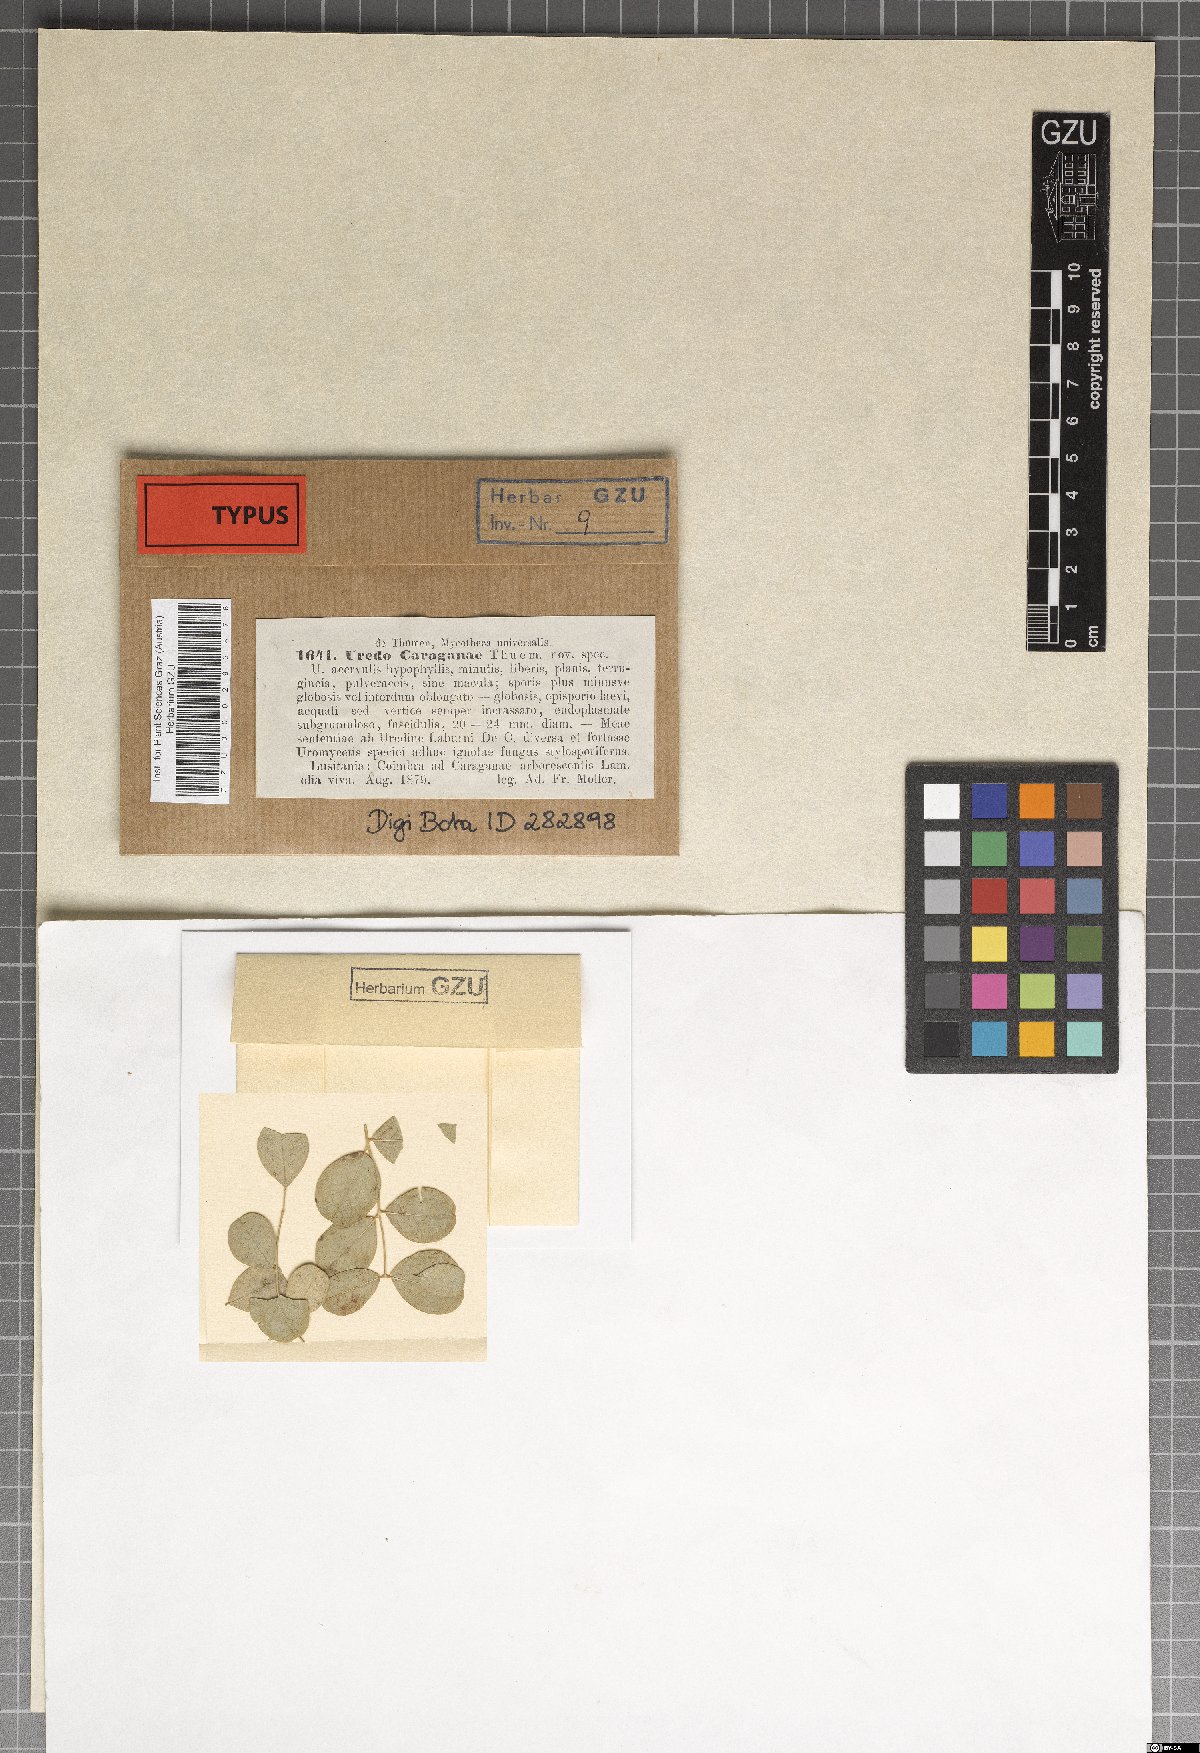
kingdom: Fungi
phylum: Basidiomycota
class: Pucciniomycetes
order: Pucciniales
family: Pucciniaceae
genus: Uromyces
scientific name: Uromyces caraganae
